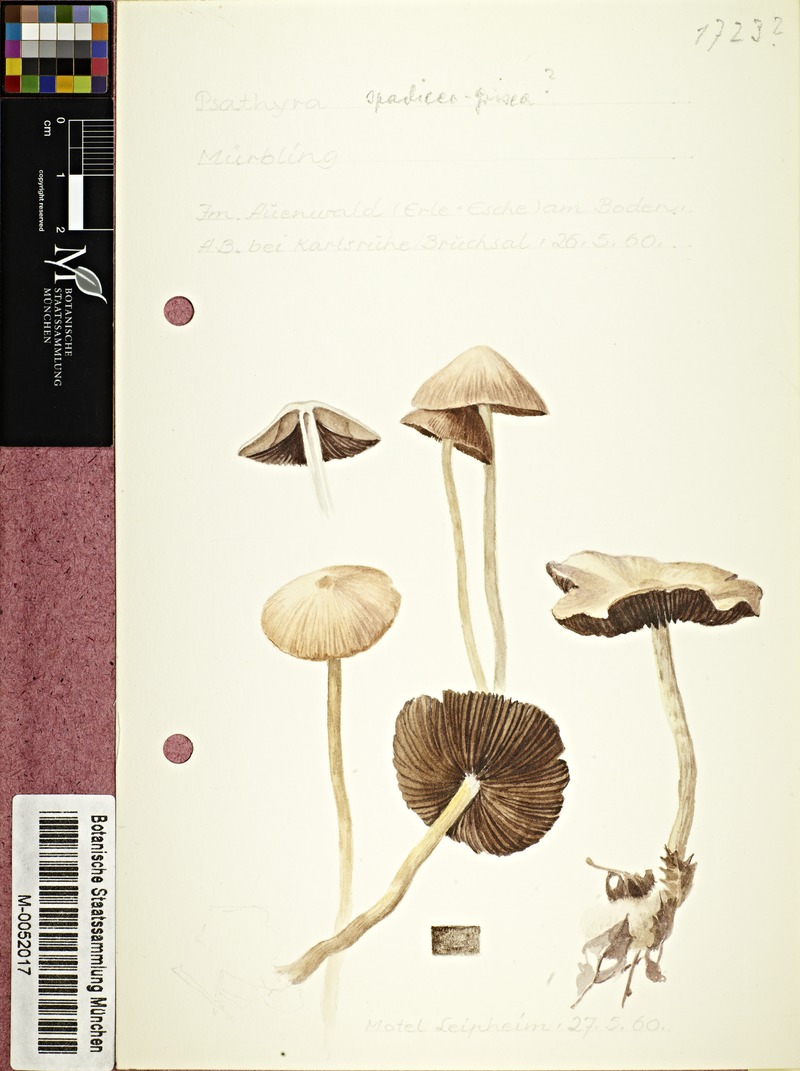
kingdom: Fungi
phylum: Basidiomycota
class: Agaricomycetes
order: Agaricales
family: Psathyrellaceae
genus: Psathyrella
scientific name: Psathyrella spadiceogrisea
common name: Spring brittlestem
